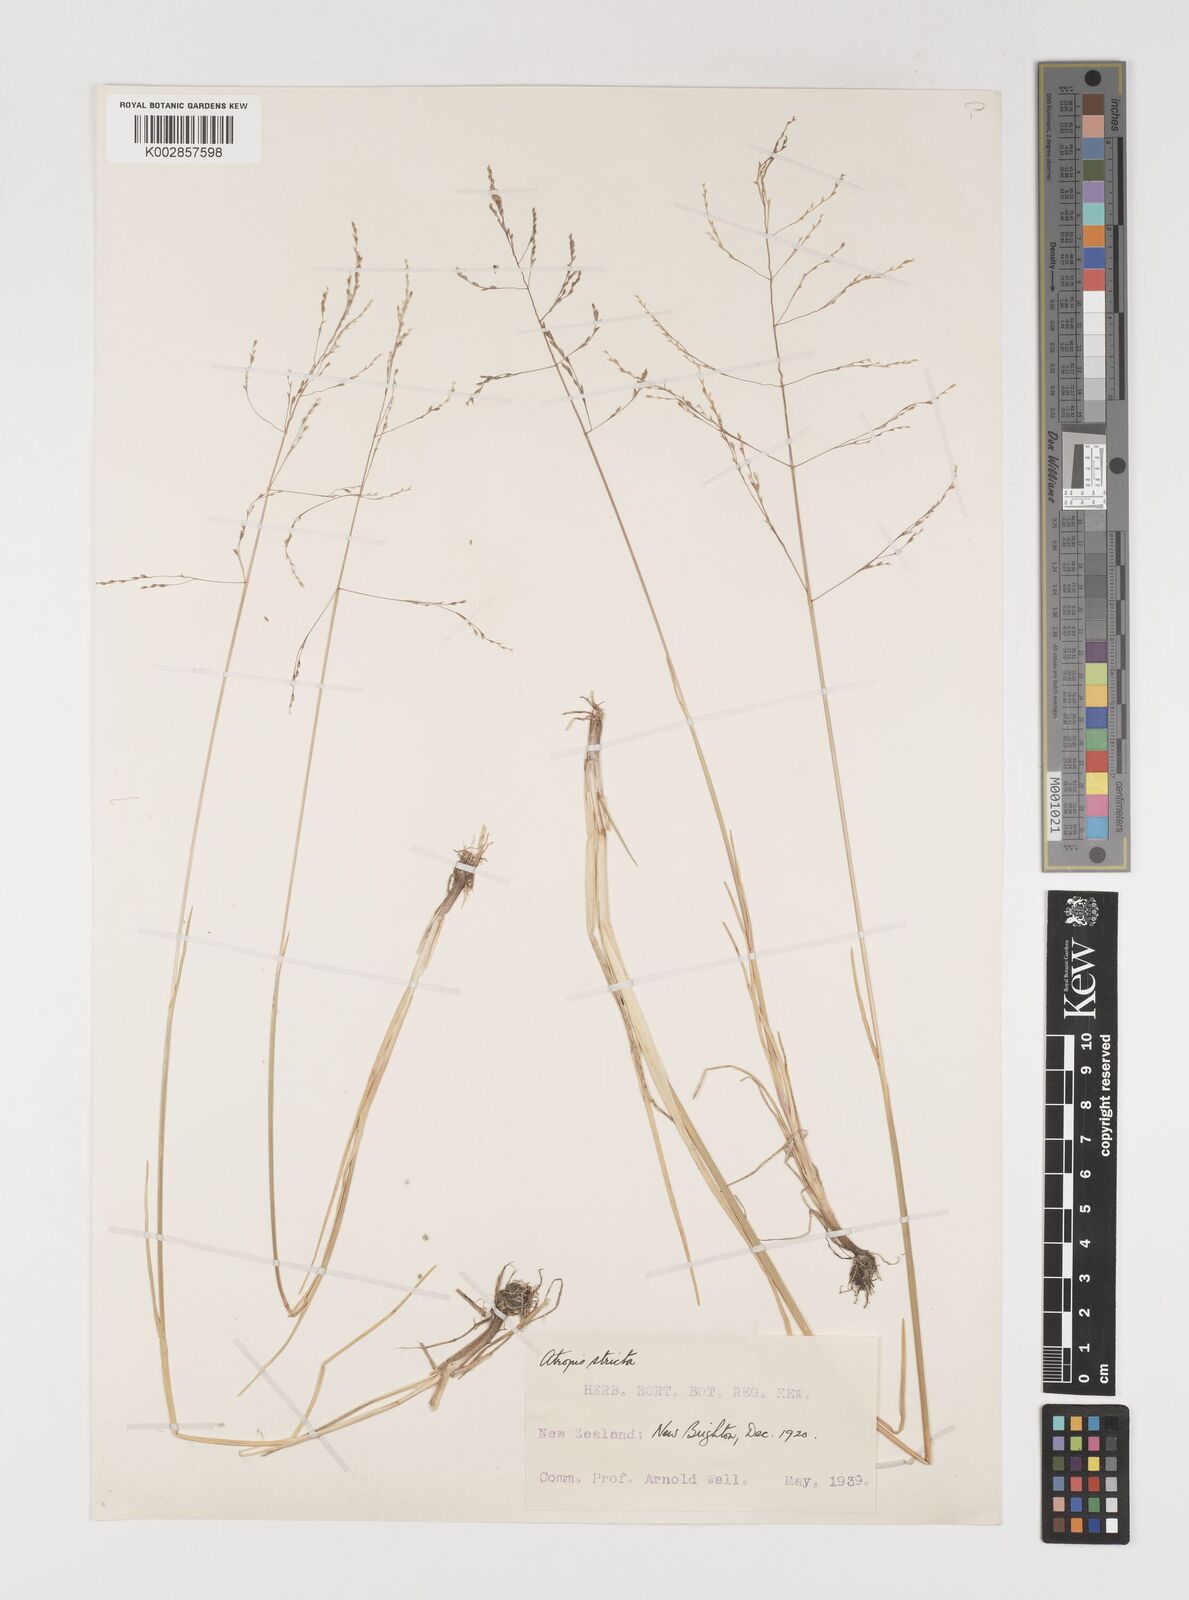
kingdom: Plantae
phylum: Tracheophyta
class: Liliopsida
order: Poales
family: Poaceae
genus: Puccinellia
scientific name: Puccinellia
